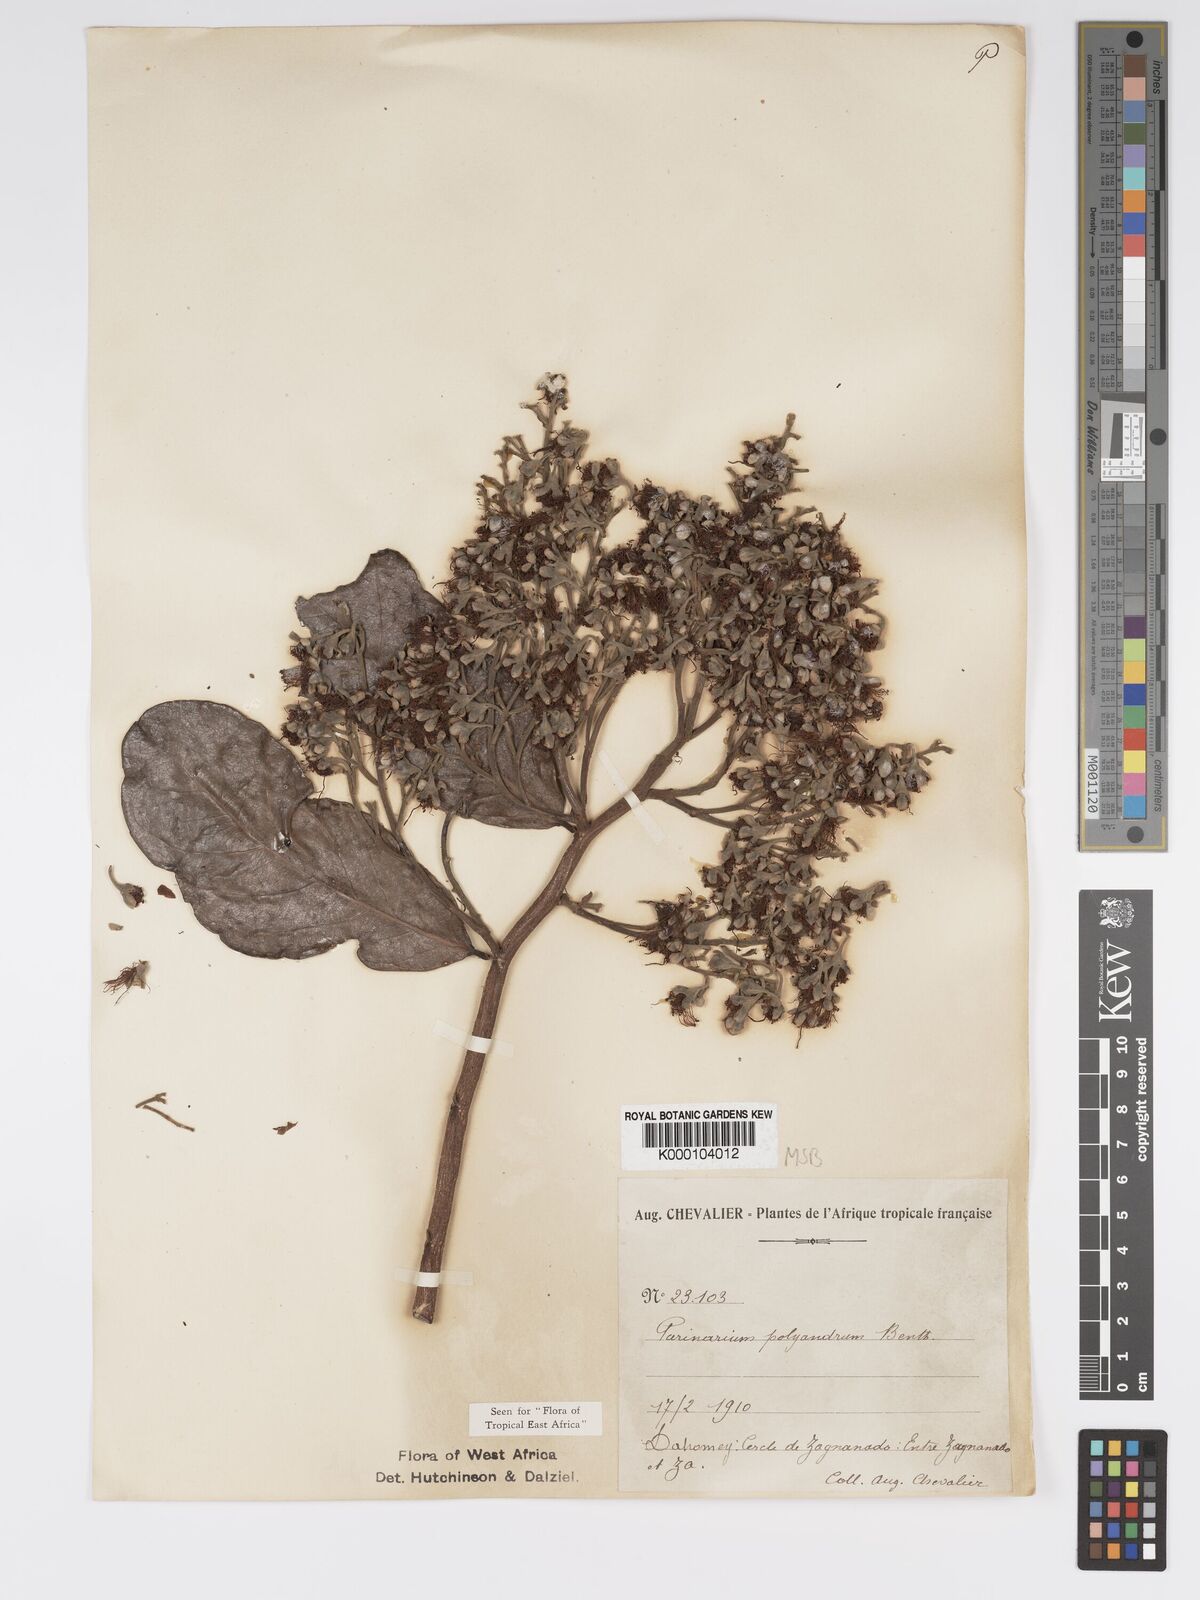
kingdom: Plantae
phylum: Tracheophyta
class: Magnoliopsida
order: Malpighiales
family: Chrysobalanaceae
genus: Maranthes
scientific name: Maranthes polyandra
